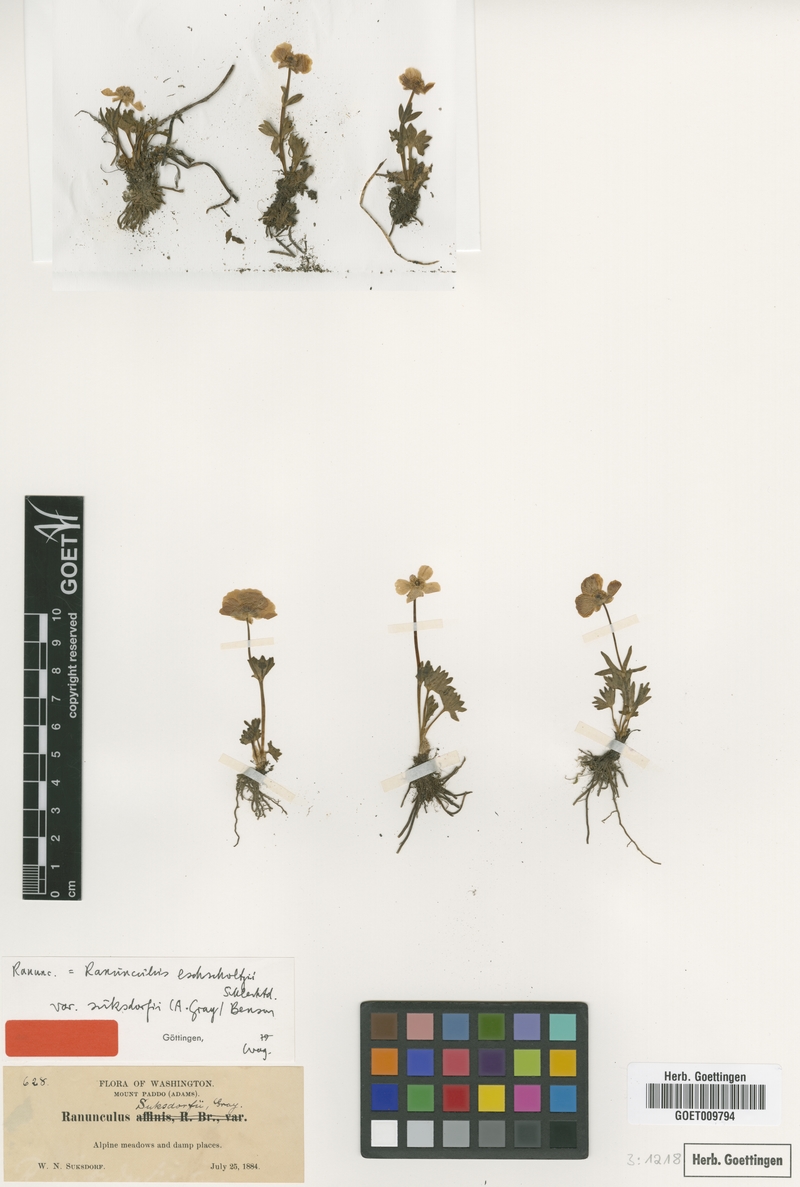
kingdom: Plantae
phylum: Tracheophyta
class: Magnoliopsida
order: Ranunculales
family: Ranunculaceae
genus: Ranunculus
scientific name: Ranunculus suksdorfii
